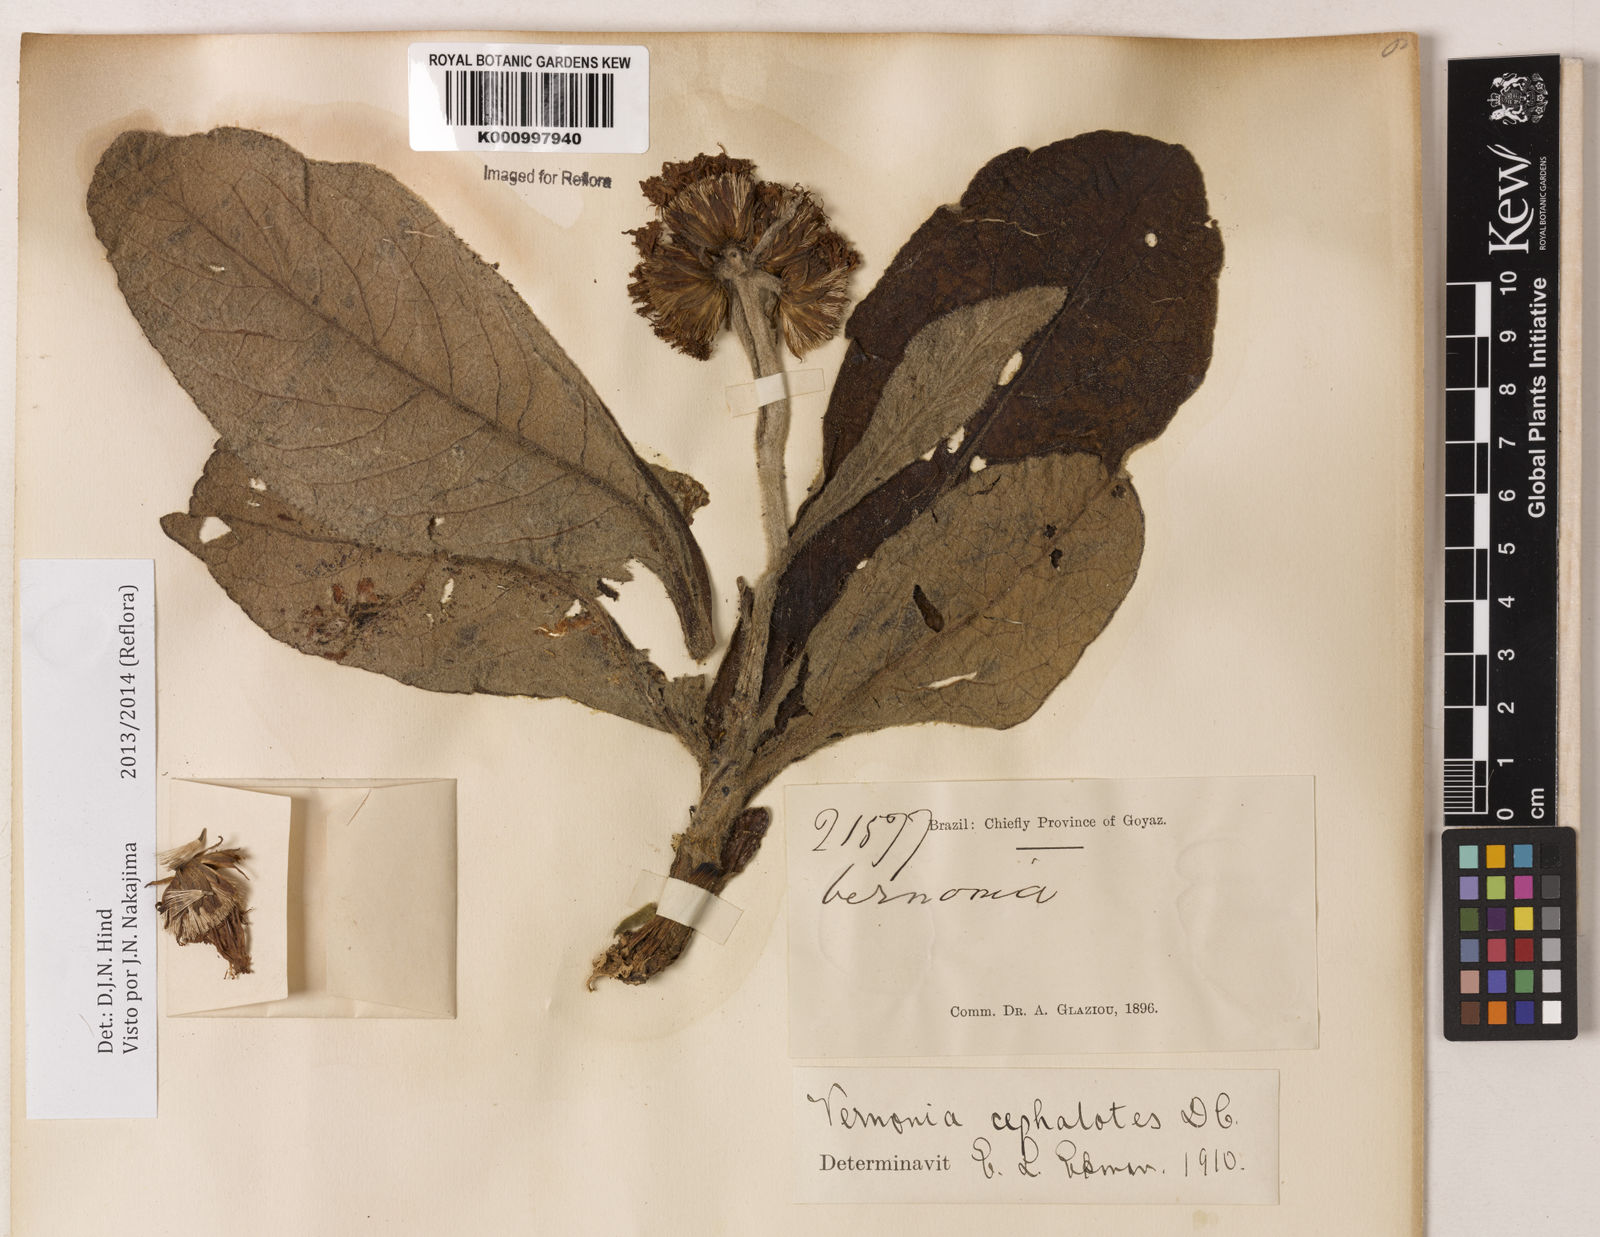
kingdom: Plantae
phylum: Tracheophyta
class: Magnoliopsida
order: Asterales
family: Asteraceae
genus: Lessingianthus
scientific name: Lessingianthus cephalotes
